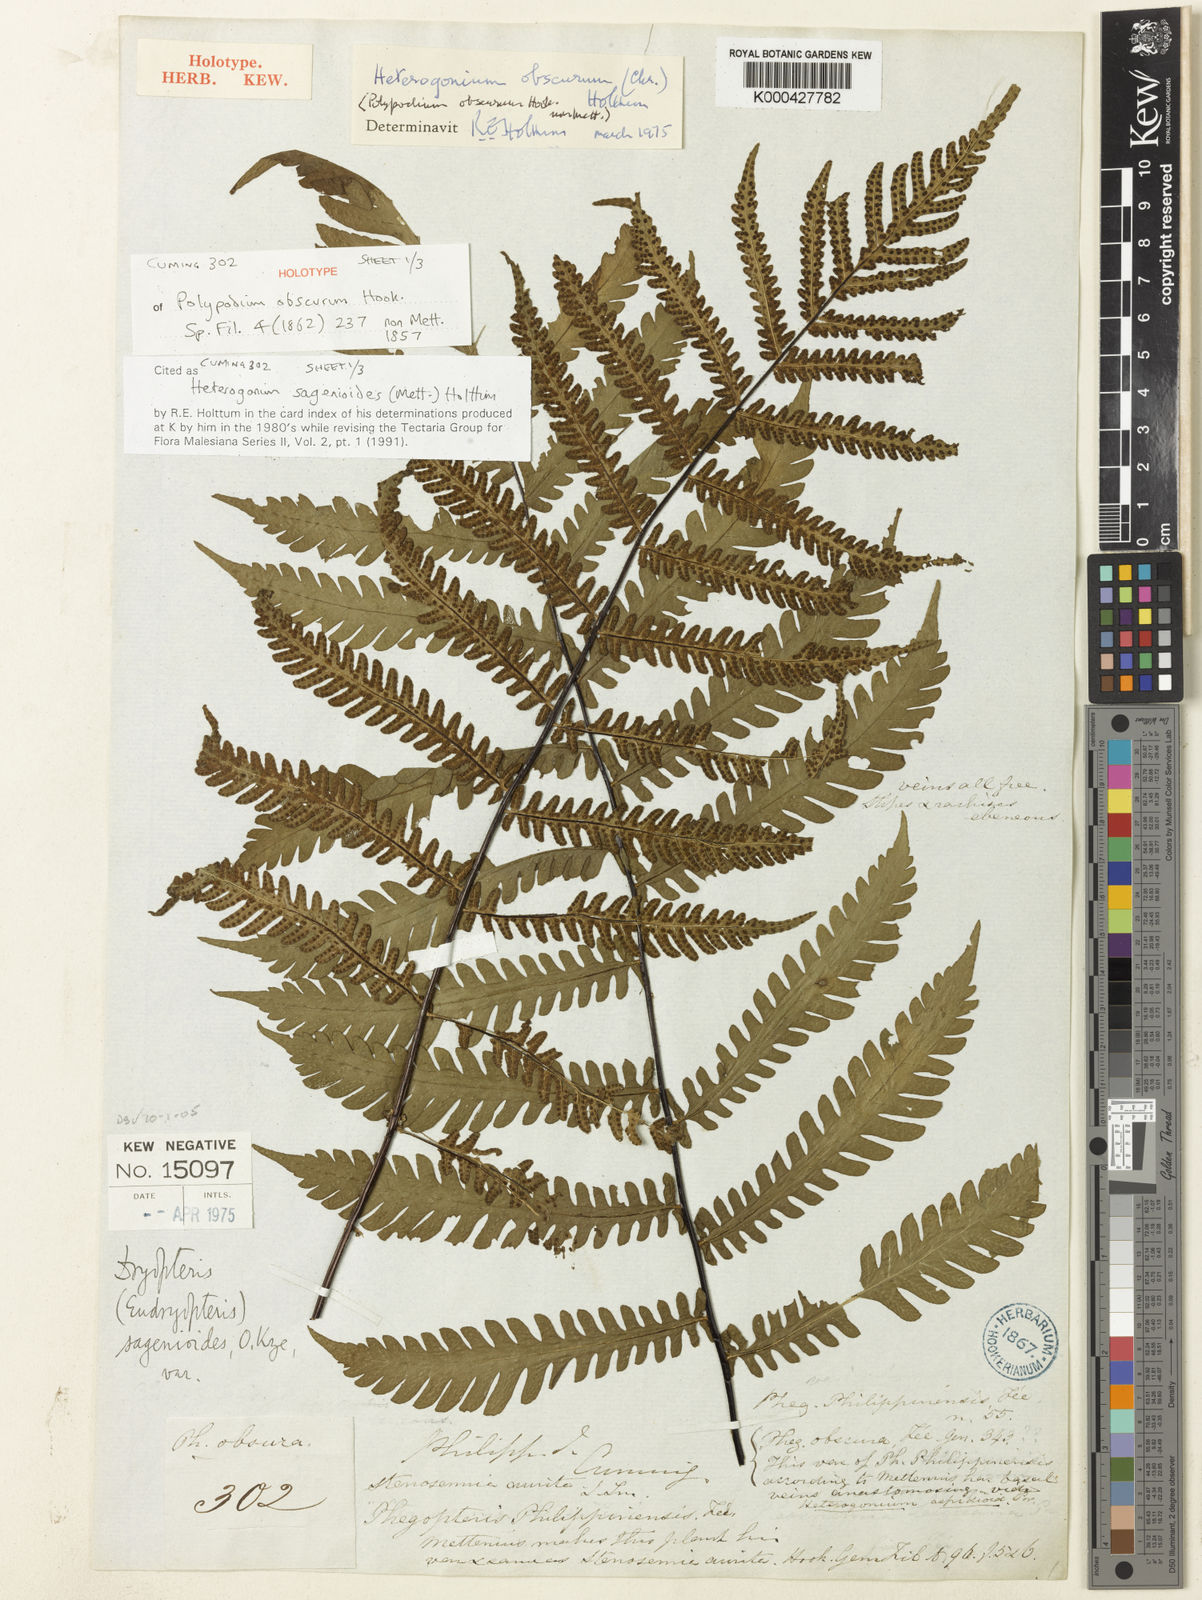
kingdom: Plantae
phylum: Tracheophyta
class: Polypodiopsida
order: Polypodiales
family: Tectariaceae
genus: Tectaria
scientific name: Tectaria sagenioides
